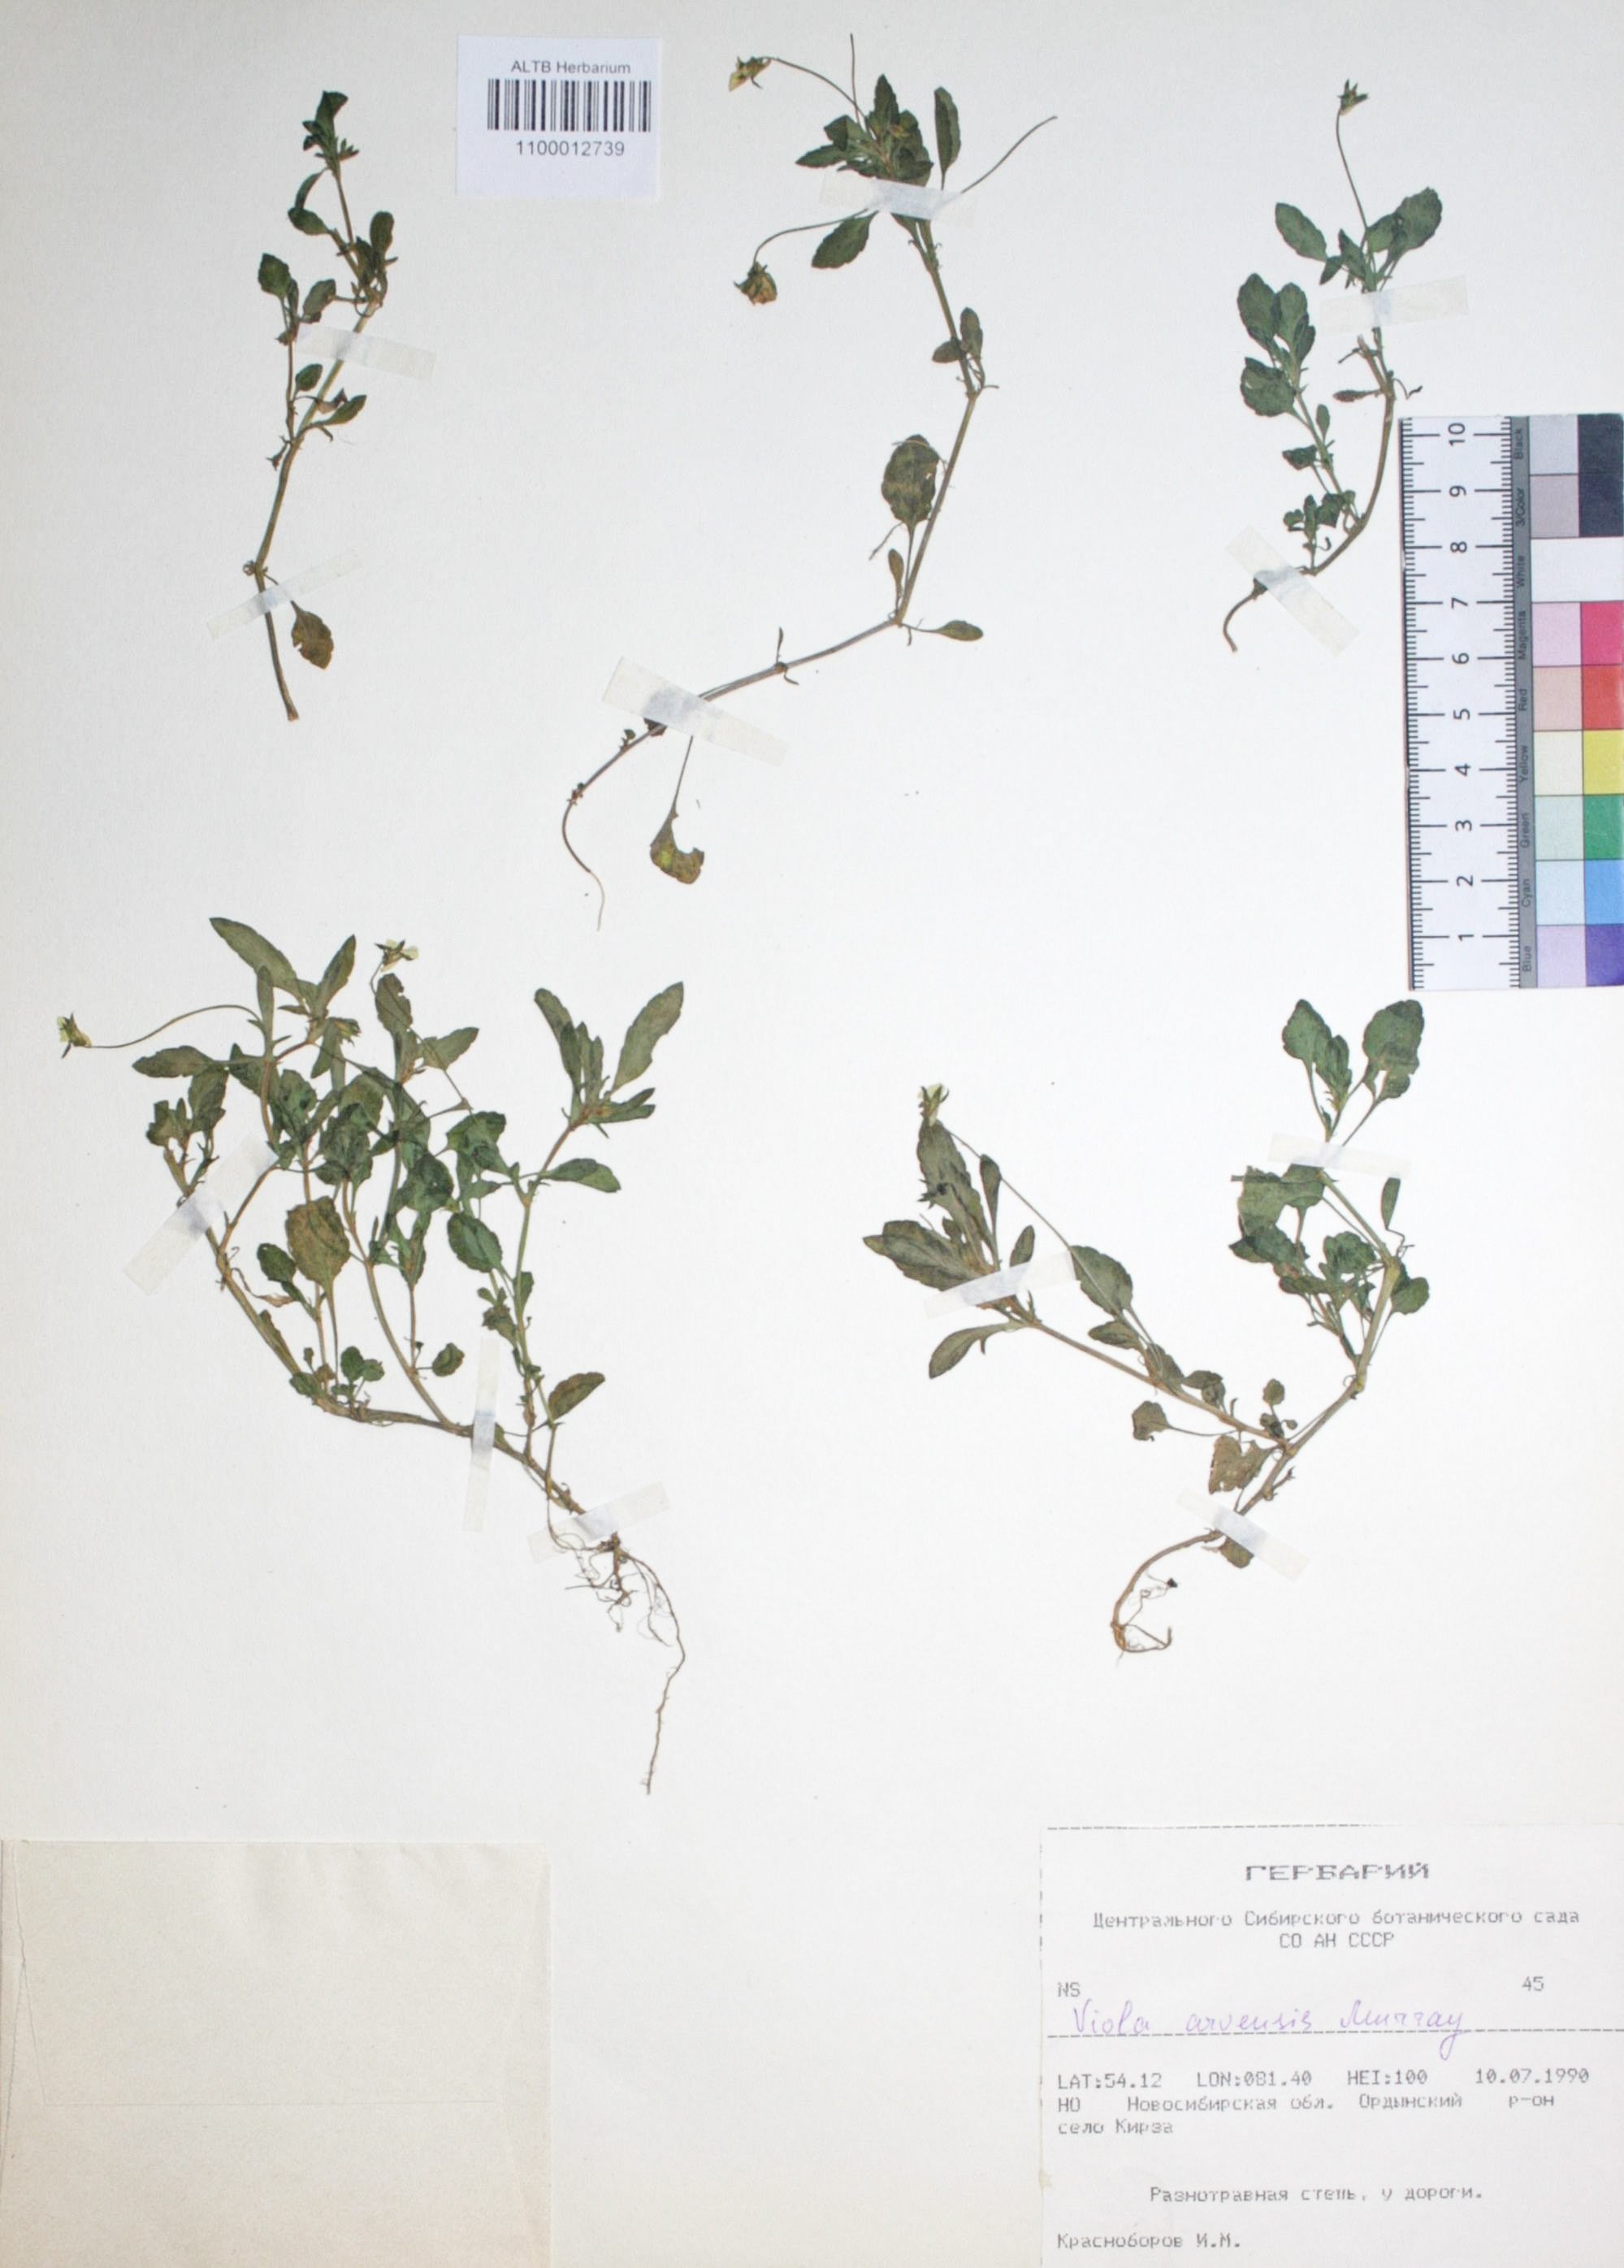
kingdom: Plantae
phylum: Tracheophyta
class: Magnoliopsida
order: Malpighiales
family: Violaceae
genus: Viola
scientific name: Viola arvensis
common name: Field pansy
